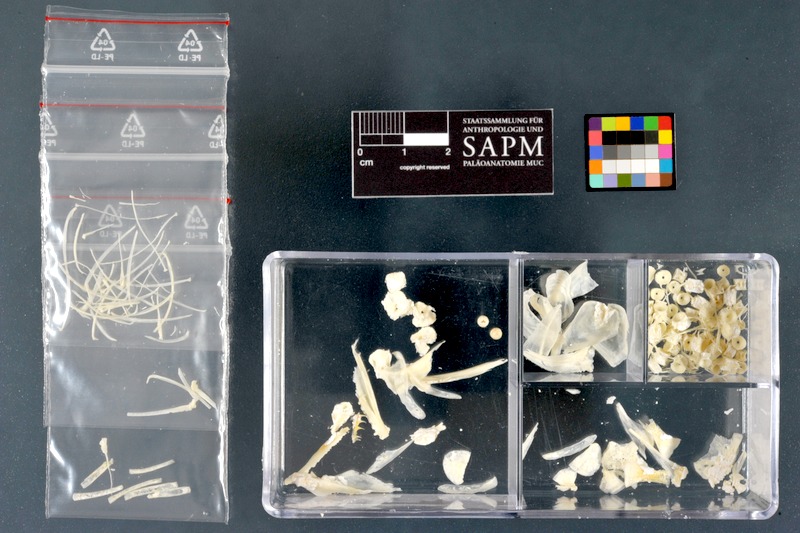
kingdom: Animalia
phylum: Chordata
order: Salmoniformes
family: Salmonidae
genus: Salvelinus
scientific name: Salvelinus alpinus
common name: Charr
